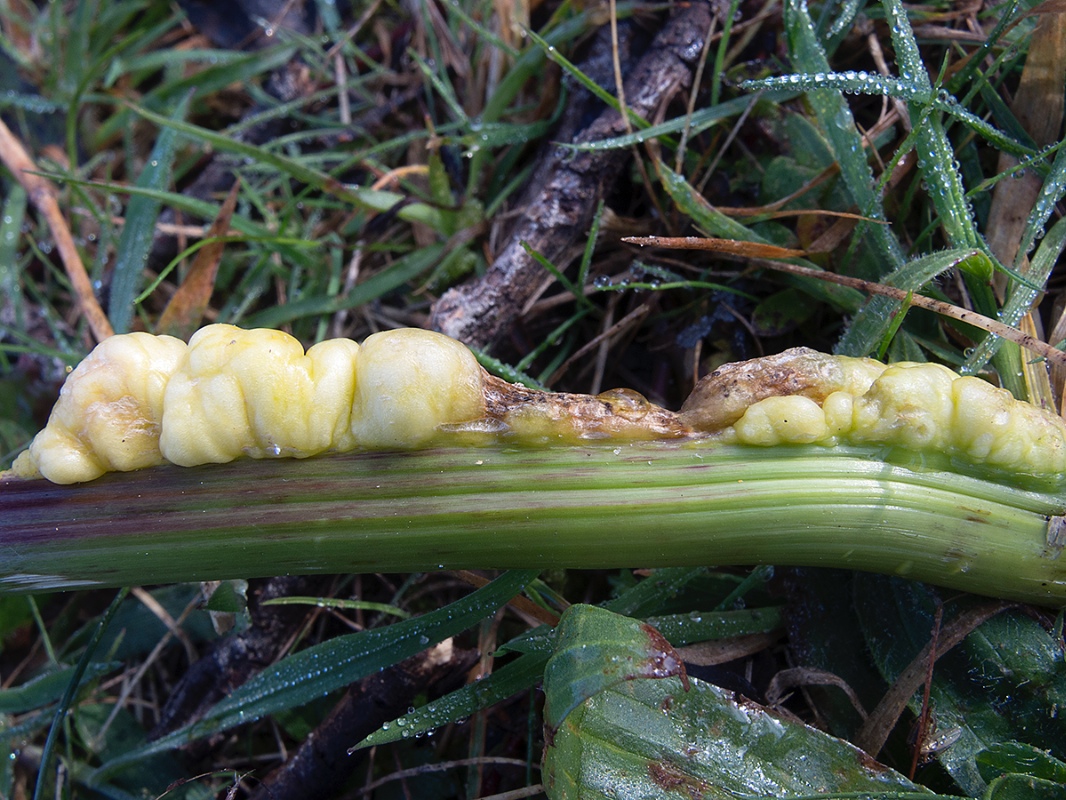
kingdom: Fungi
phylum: Basidiomycota
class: Ustilaginomycetes
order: Ustilaginales
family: Ustilaginaceae
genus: Mycosarcoma
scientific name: Mycosarcoma maydis
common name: majs-brand
